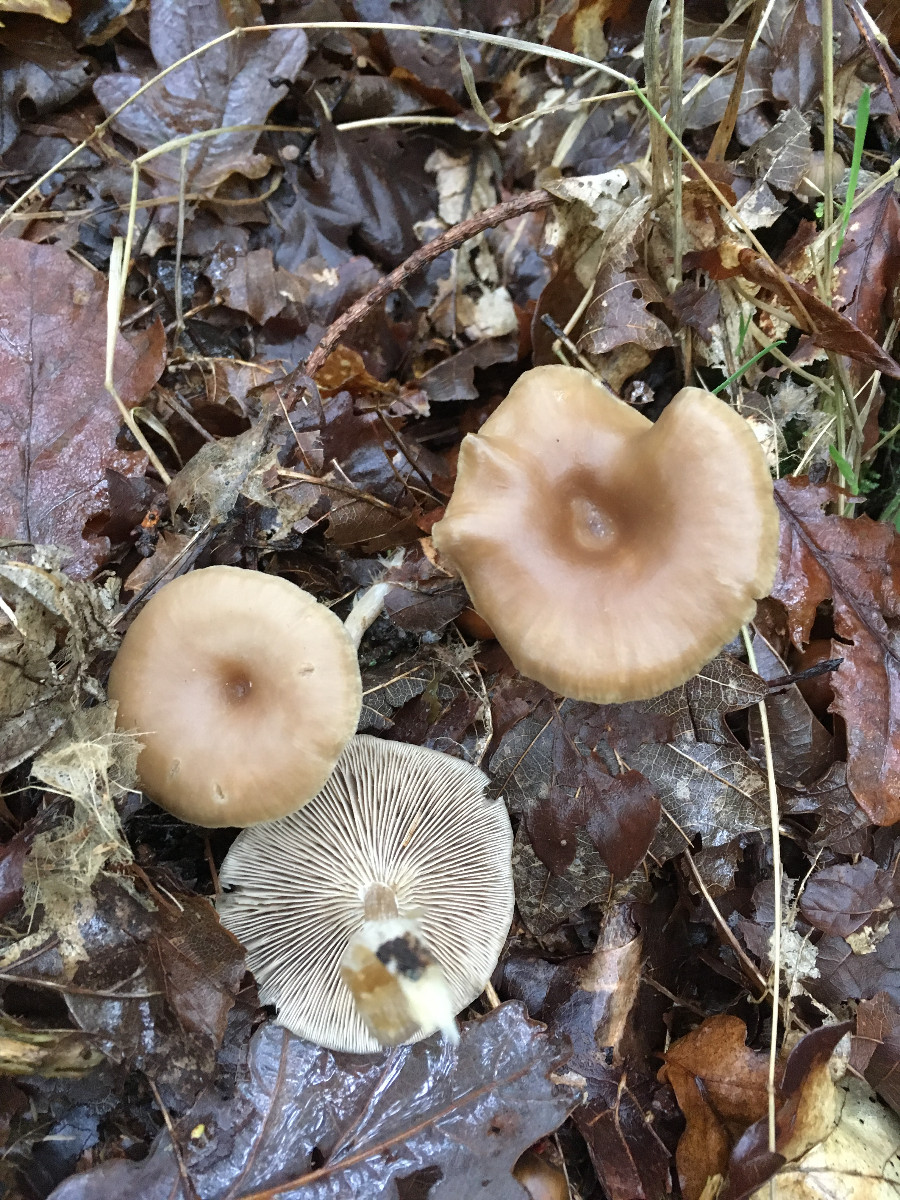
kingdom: Fungi
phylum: Basidiomycota
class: Agaricomycetes
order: Agaricales
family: Tricholomataceae
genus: Clitocybe
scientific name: Clitocybe
